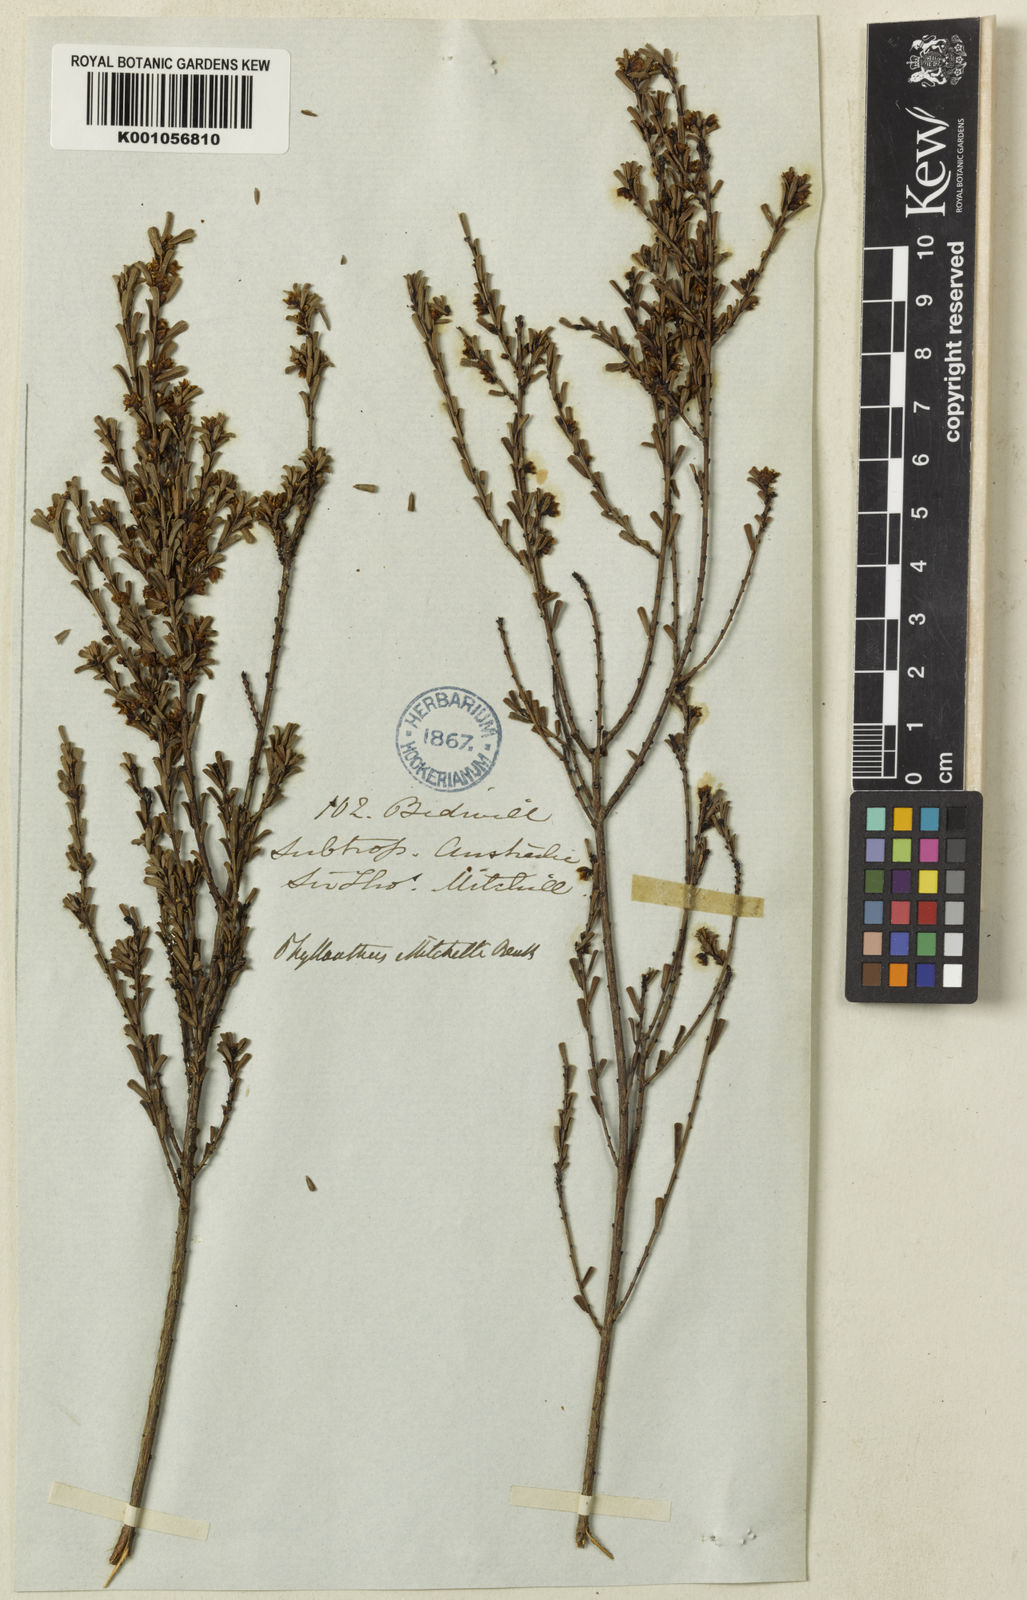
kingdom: Plantae
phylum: Tracheophyta
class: Magnoliopsida
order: Malpighiales
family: Phyllanthaceae
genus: Phyllanthus
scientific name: Phyllanthus mitchellii
